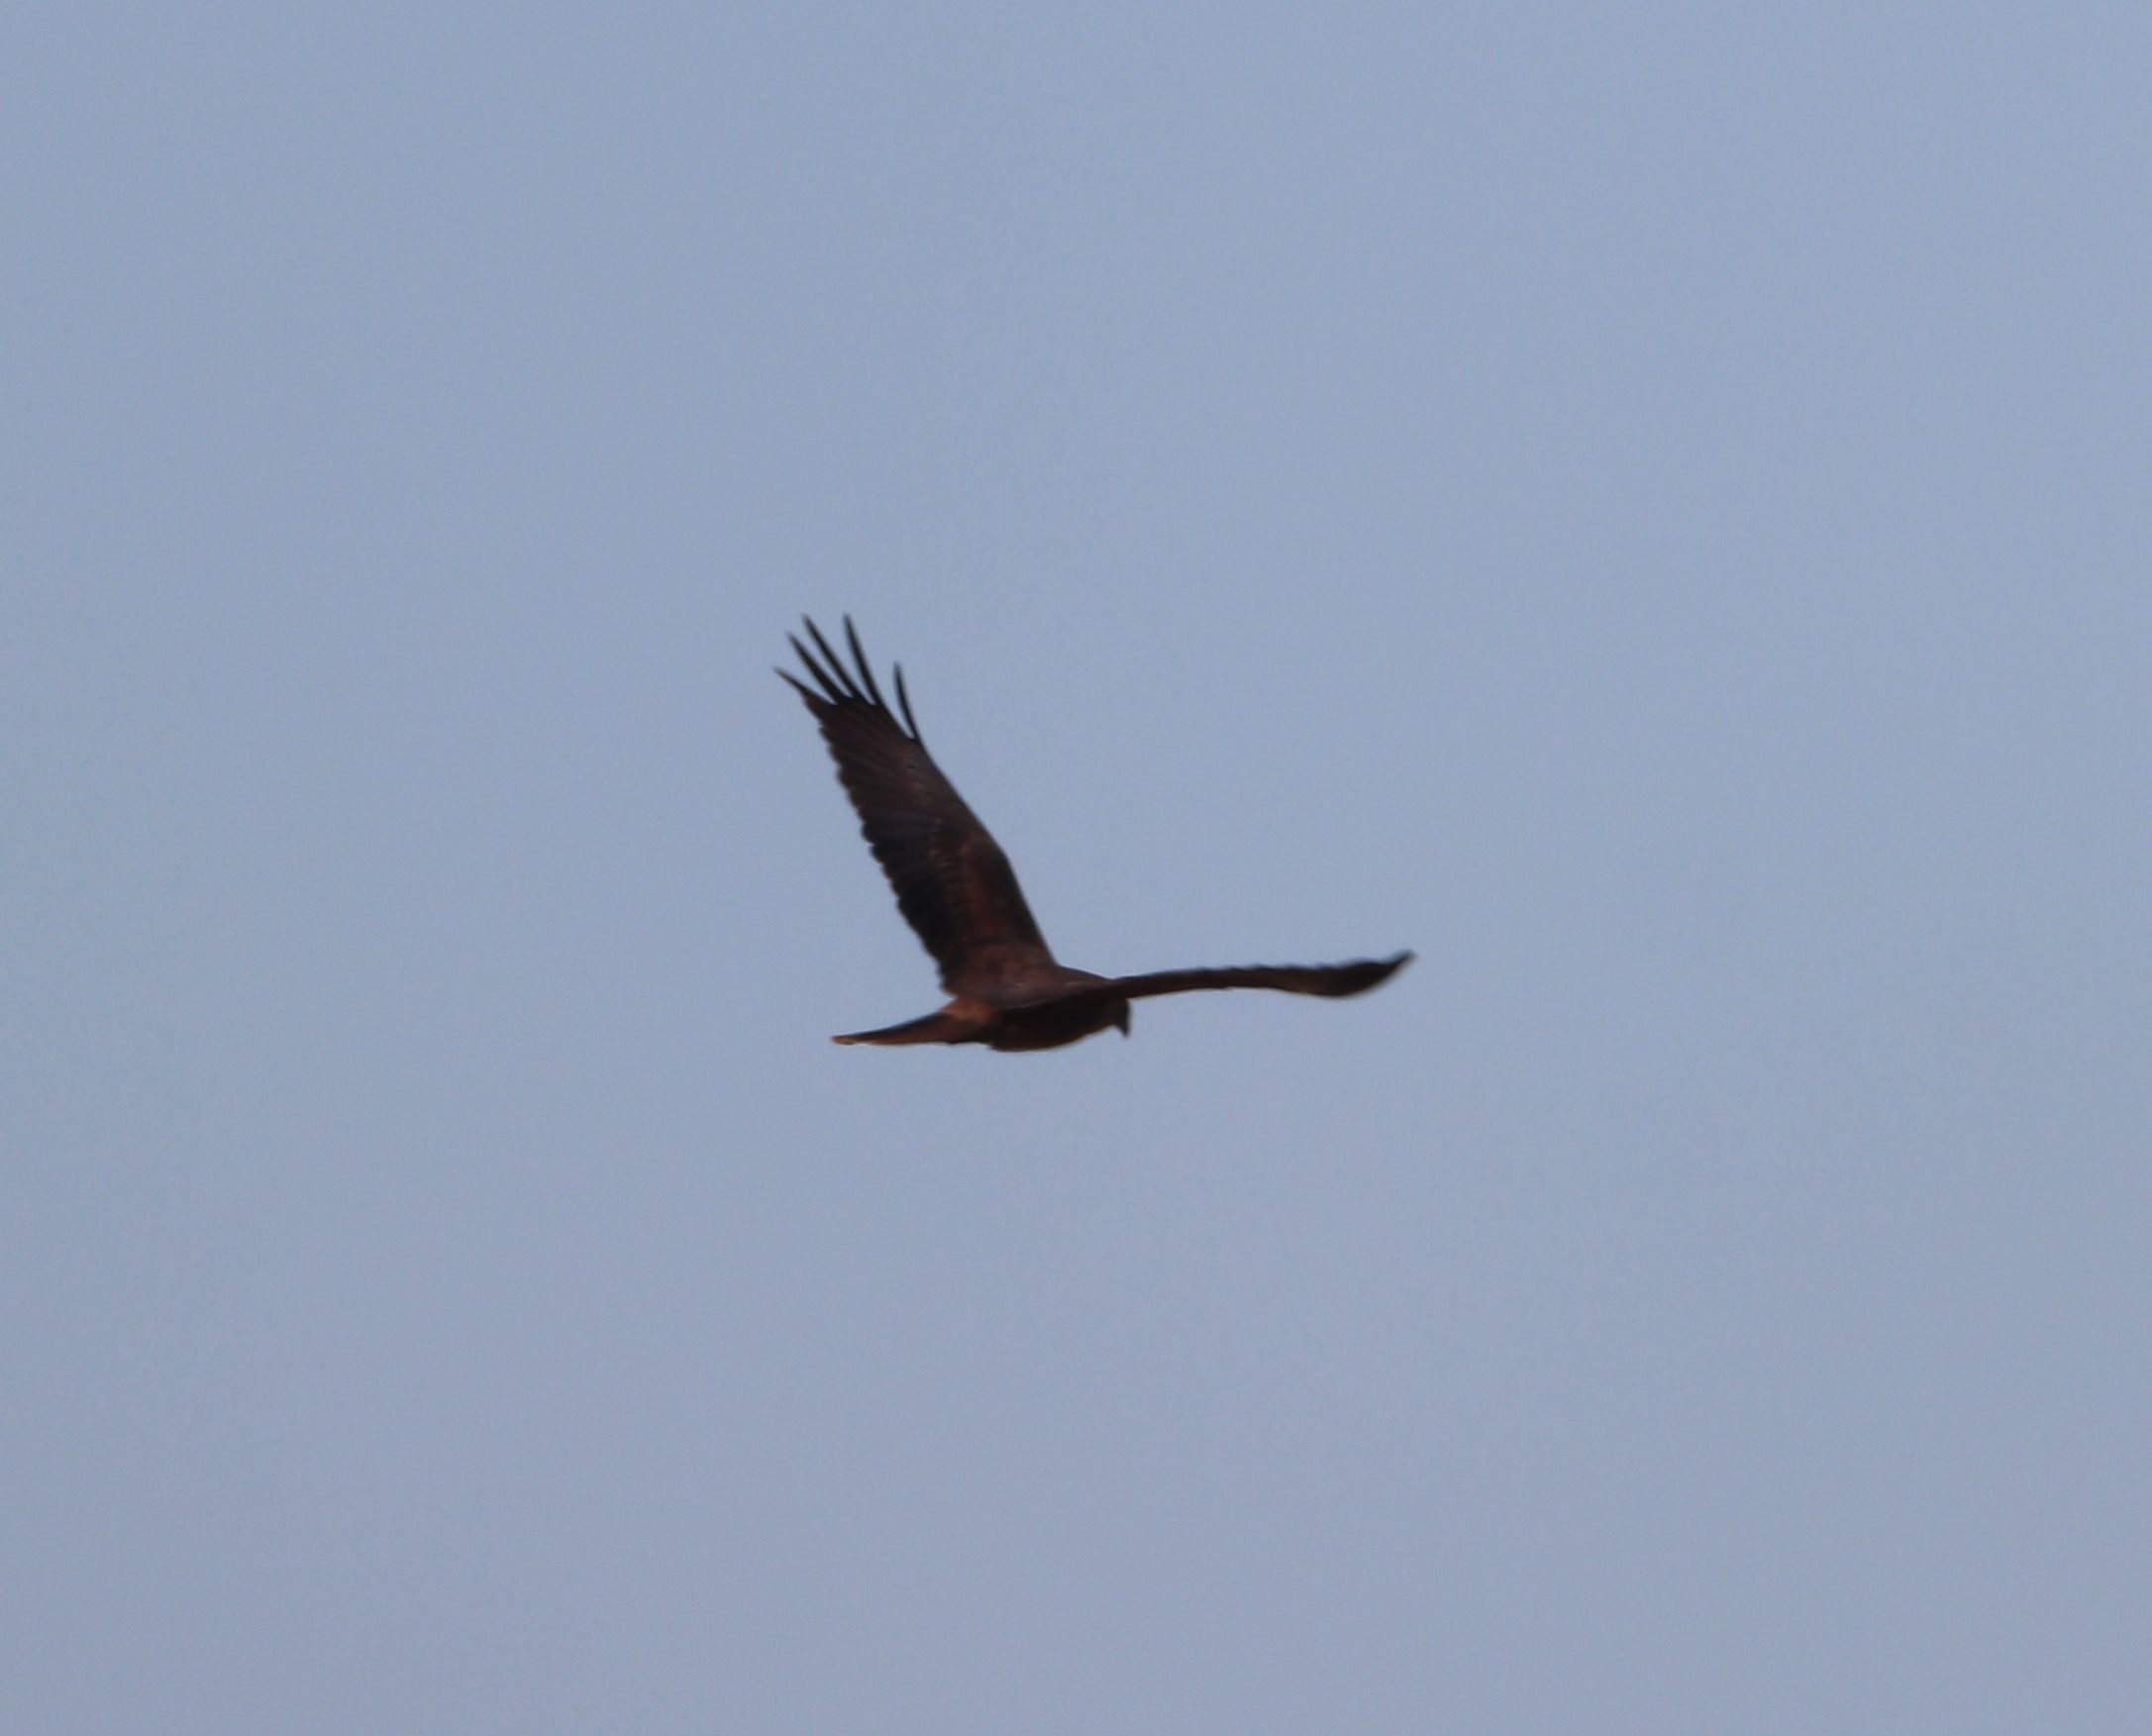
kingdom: Animalia
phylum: Chordata
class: Aves
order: Accipitriformes
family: Accipitridae
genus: Circus
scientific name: Circus aeruginosus
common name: Rørhøg
